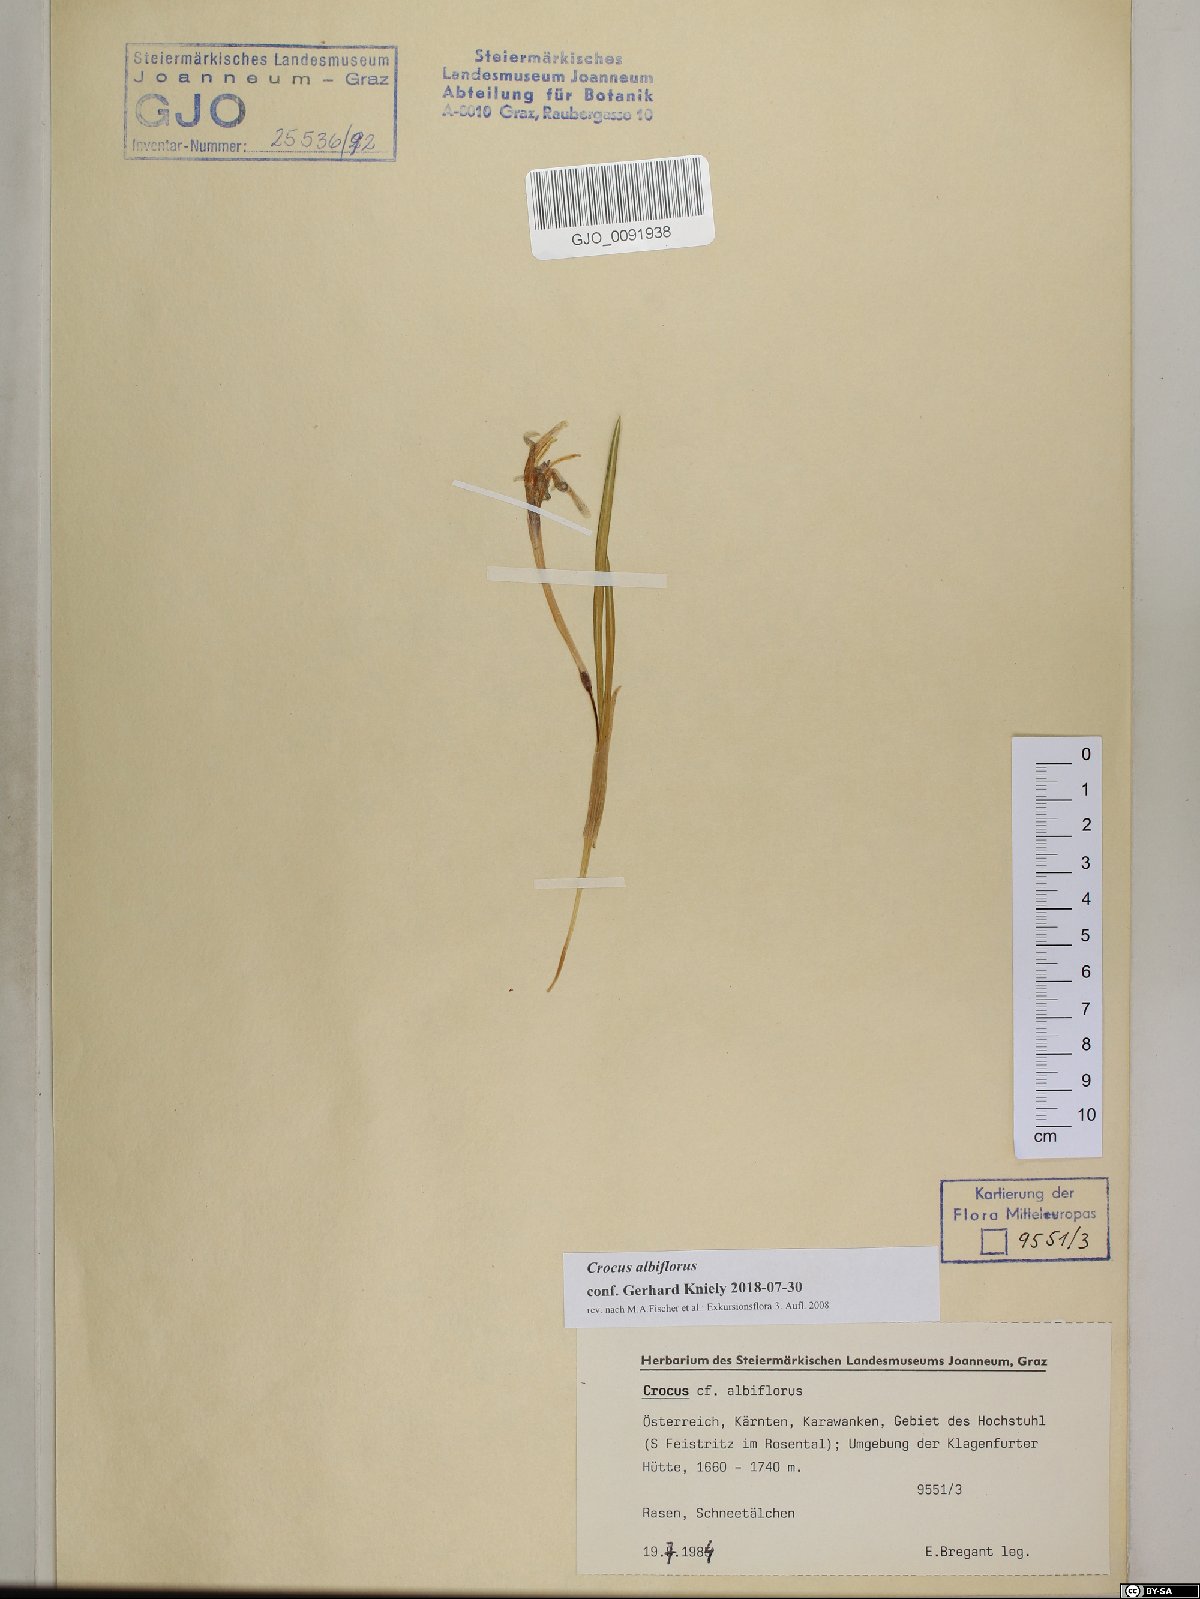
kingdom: Plantae
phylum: Tracheophyta
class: Liliopsida
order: Asparagales
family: Iridaceae
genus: Crocus
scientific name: Crocus vernus
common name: Spring crocus
